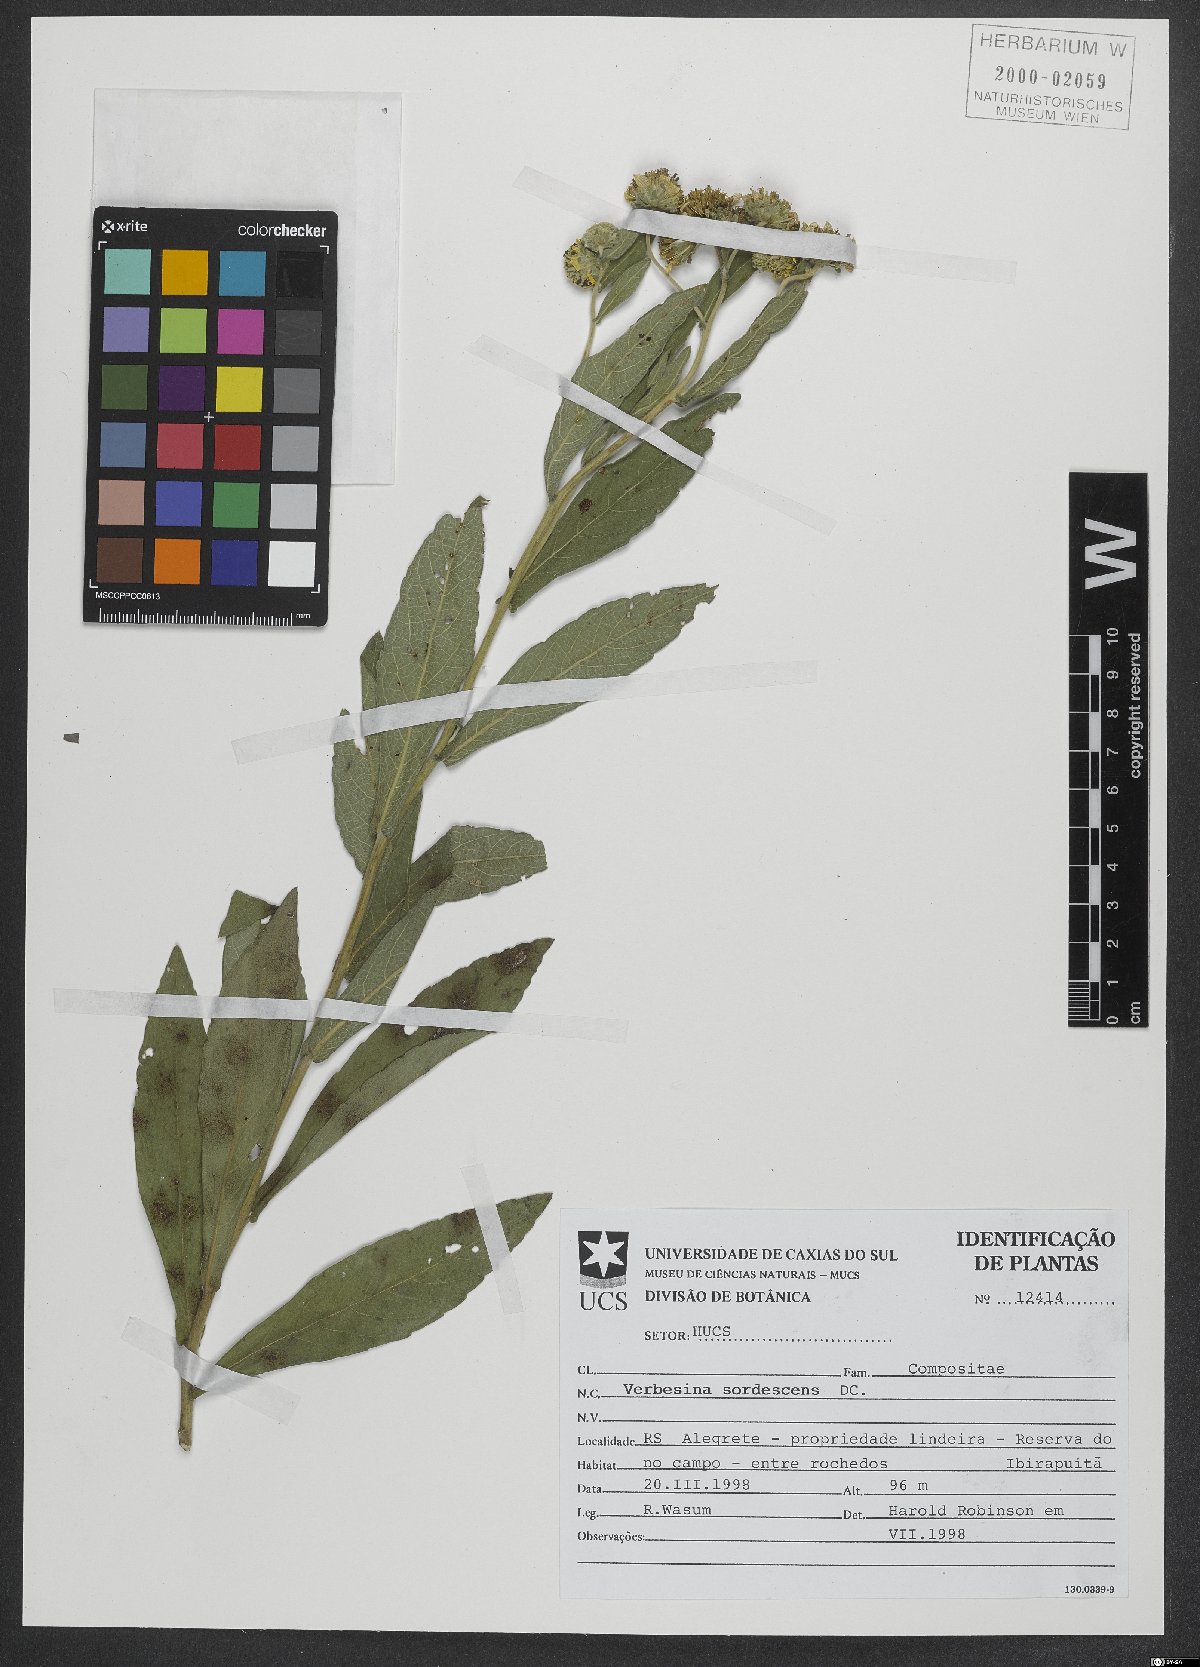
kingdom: Plantae
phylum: Tracheophyta
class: Magnoliopsida
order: Asterales
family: Asteraceae
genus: Verbesina
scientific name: Verbesina sordescens
